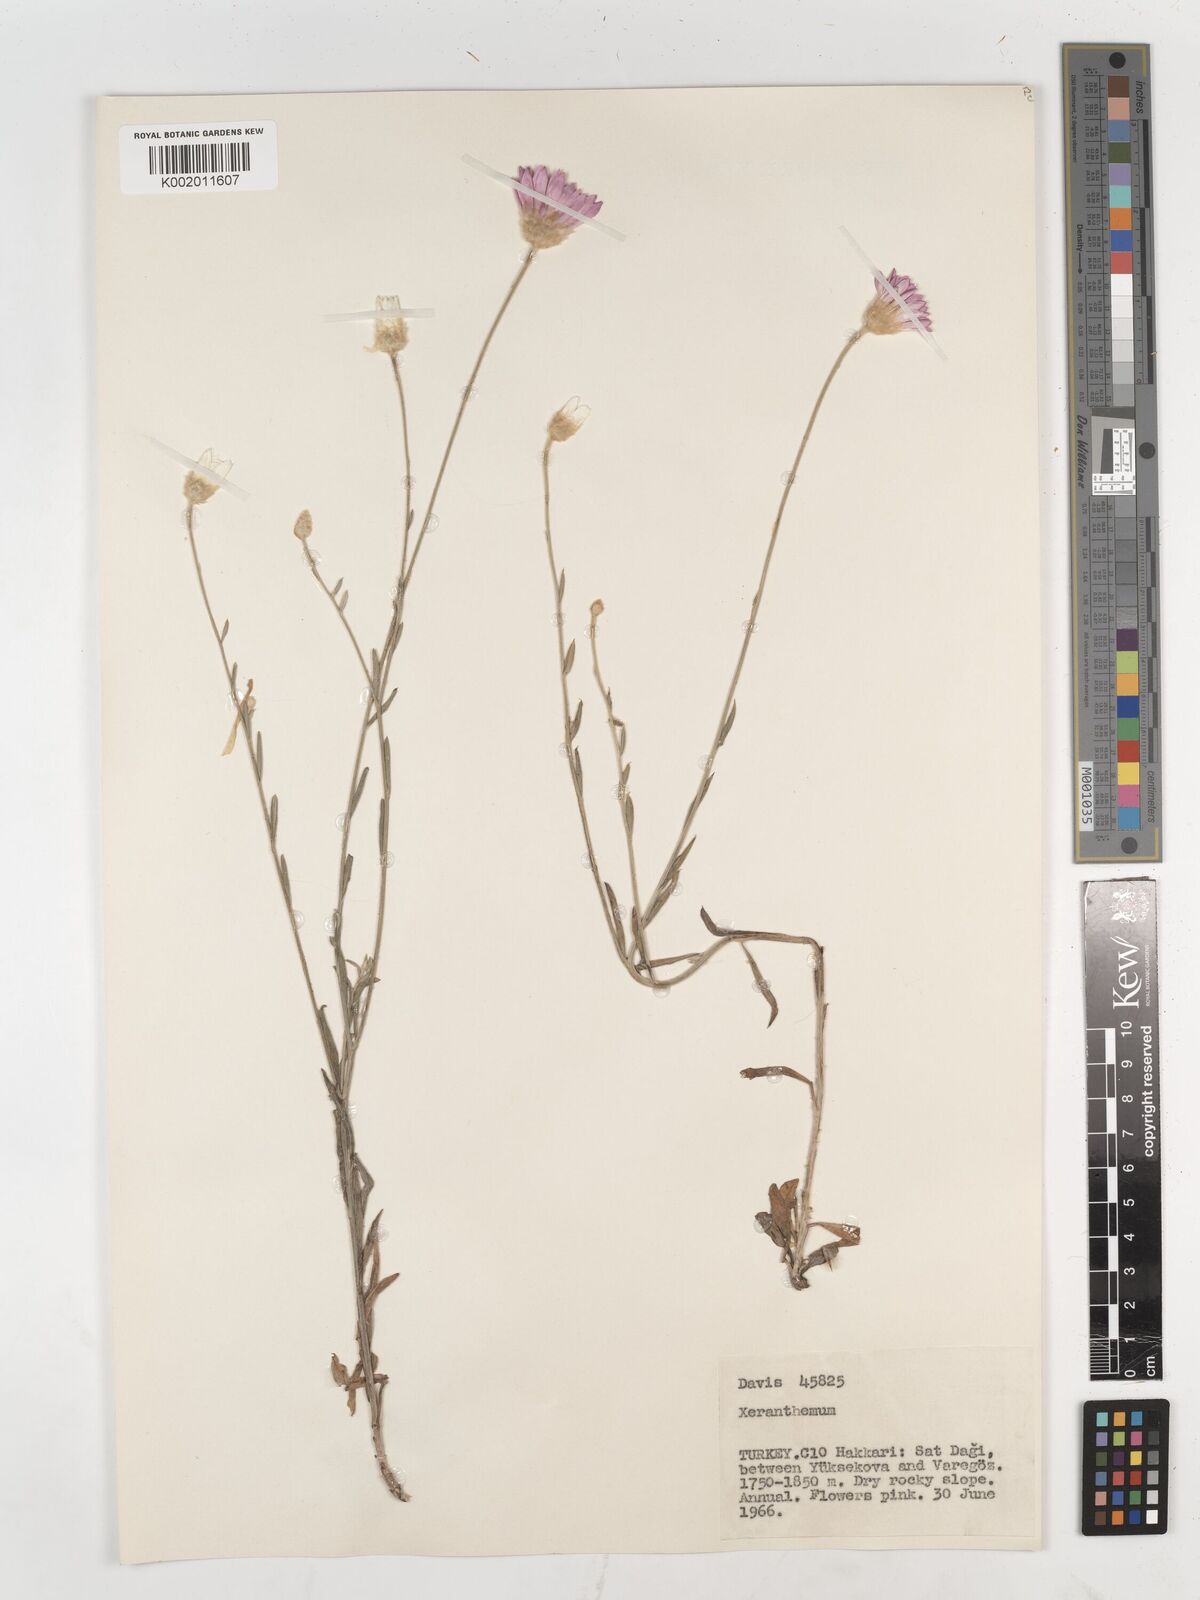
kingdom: Plantae
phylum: Tracheophyta
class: Magnoliopsida
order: Asterales
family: Asteraceae
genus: Xeranthemum
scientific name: Xeranthemum annuum
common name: Immortelle
